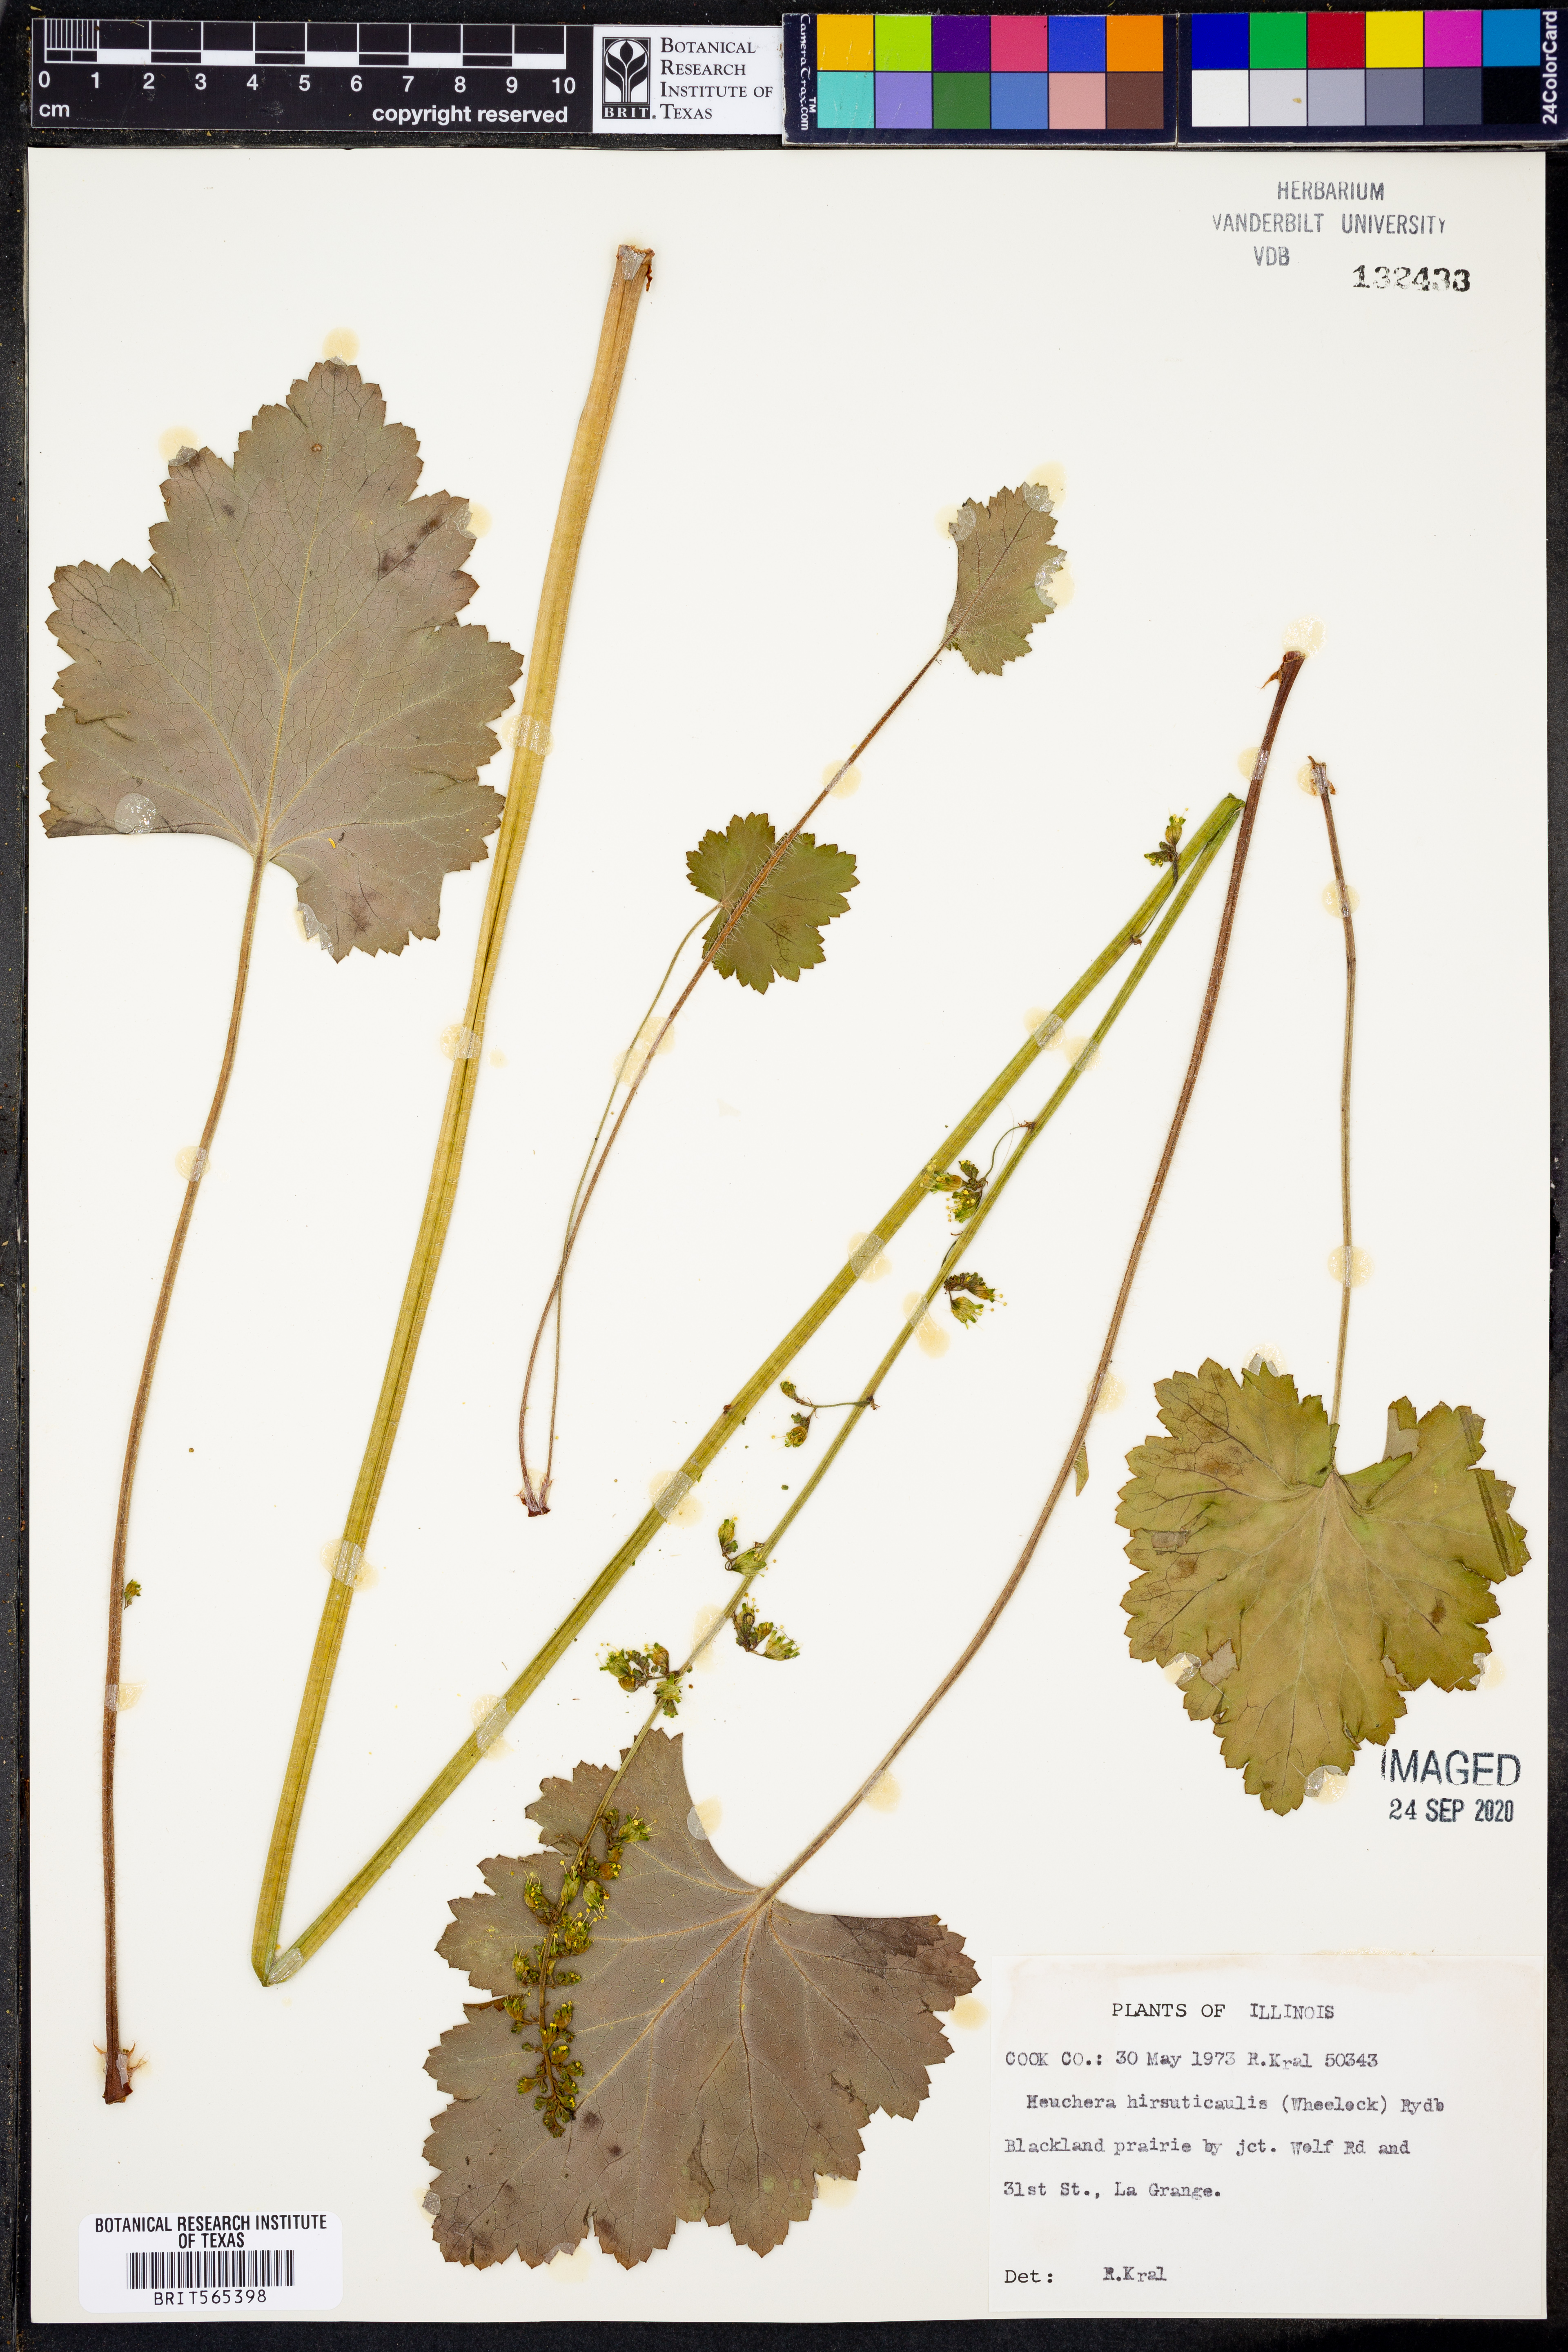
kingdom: Plantae
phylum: Tracheophyta
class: Magnoliopsida
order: Saxifragales
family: Saxifragaceae
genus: Heuchera
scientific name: Heuchera americana
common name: Alumroot
